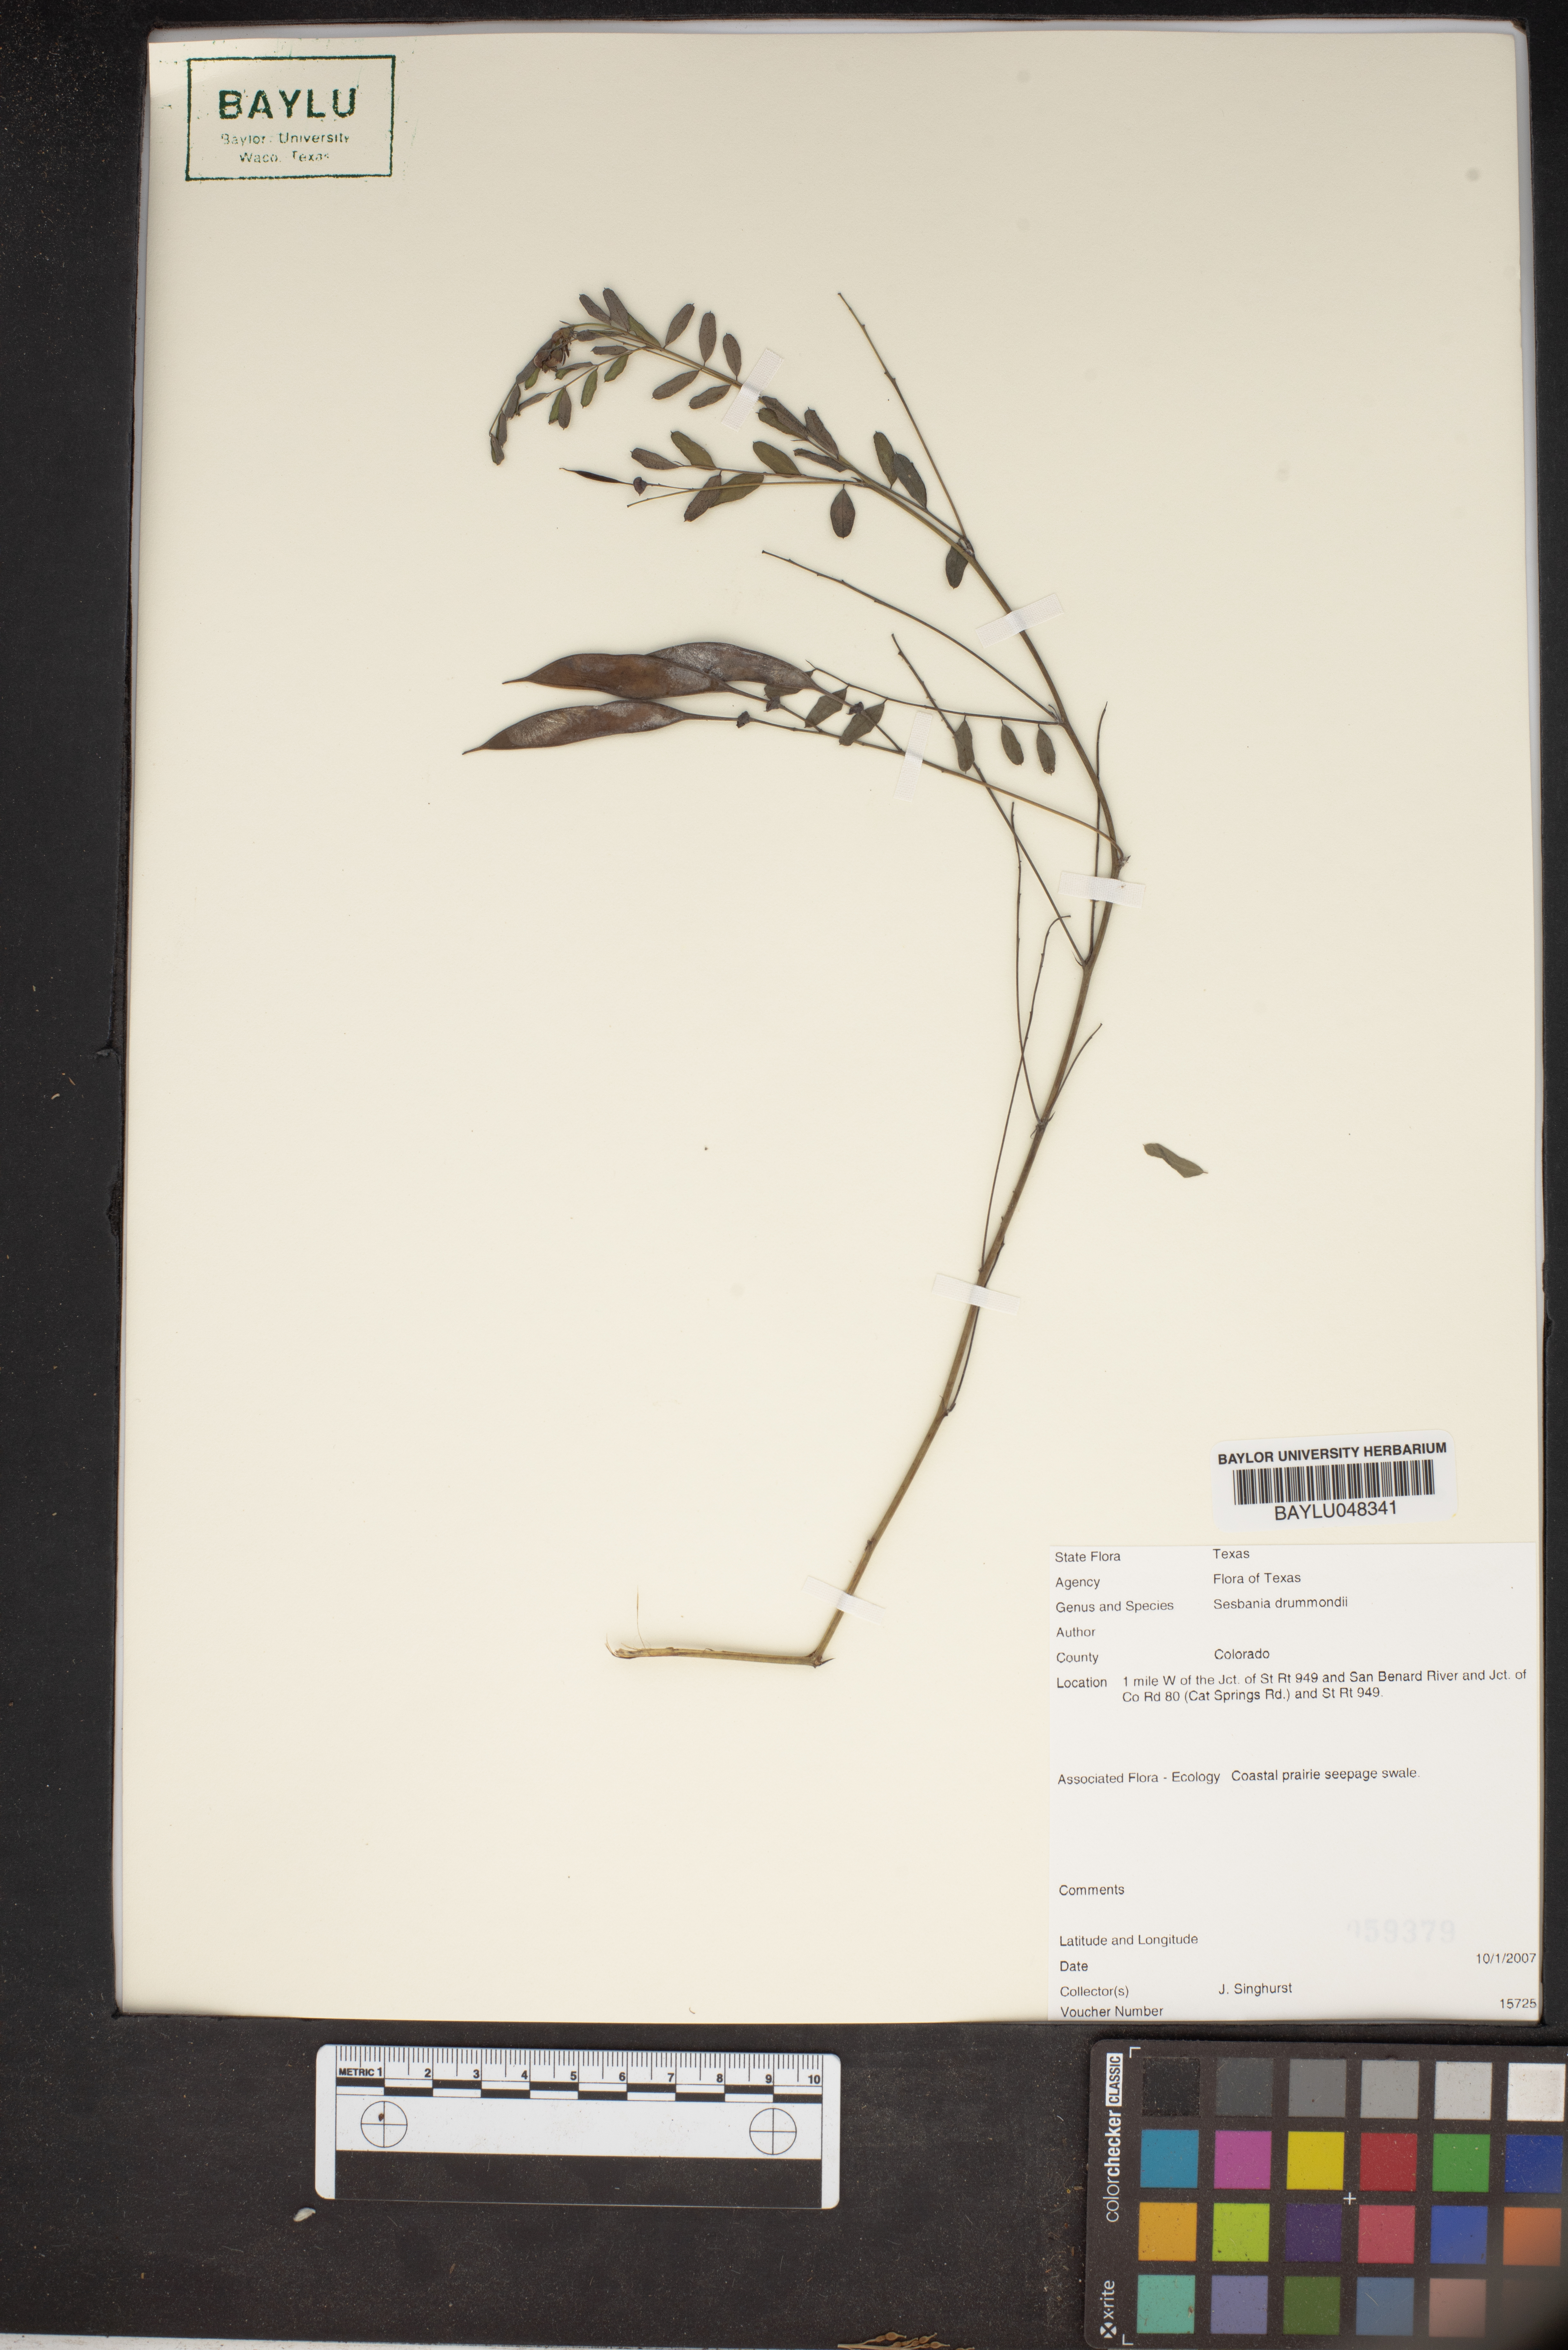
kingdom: Plantae
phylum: Tracheophyta
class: Magnoliopsida
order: Fabales
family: Fabaceae
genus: Sesbania
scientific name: Sesbania drummondii
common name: Poison-bean
